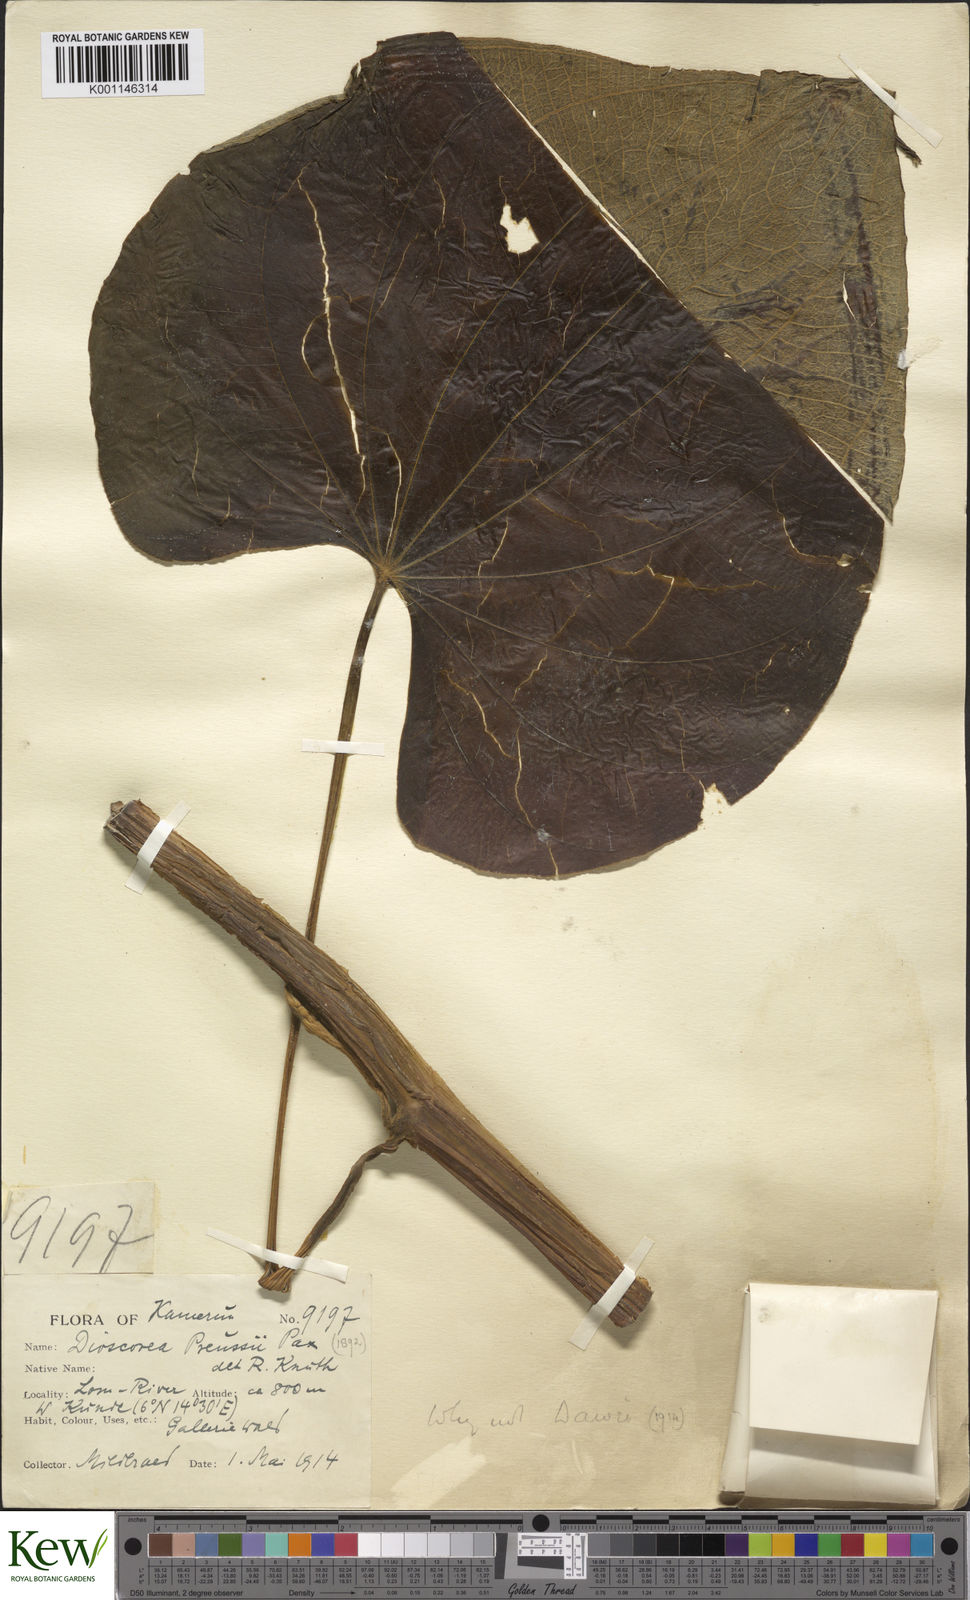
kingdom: Plantae
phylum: Tracheophyta
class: Liliopsida
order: Dioscoreales
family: Dioscoreaceae
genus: Dioscorea
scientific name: Dioscorea preussii
